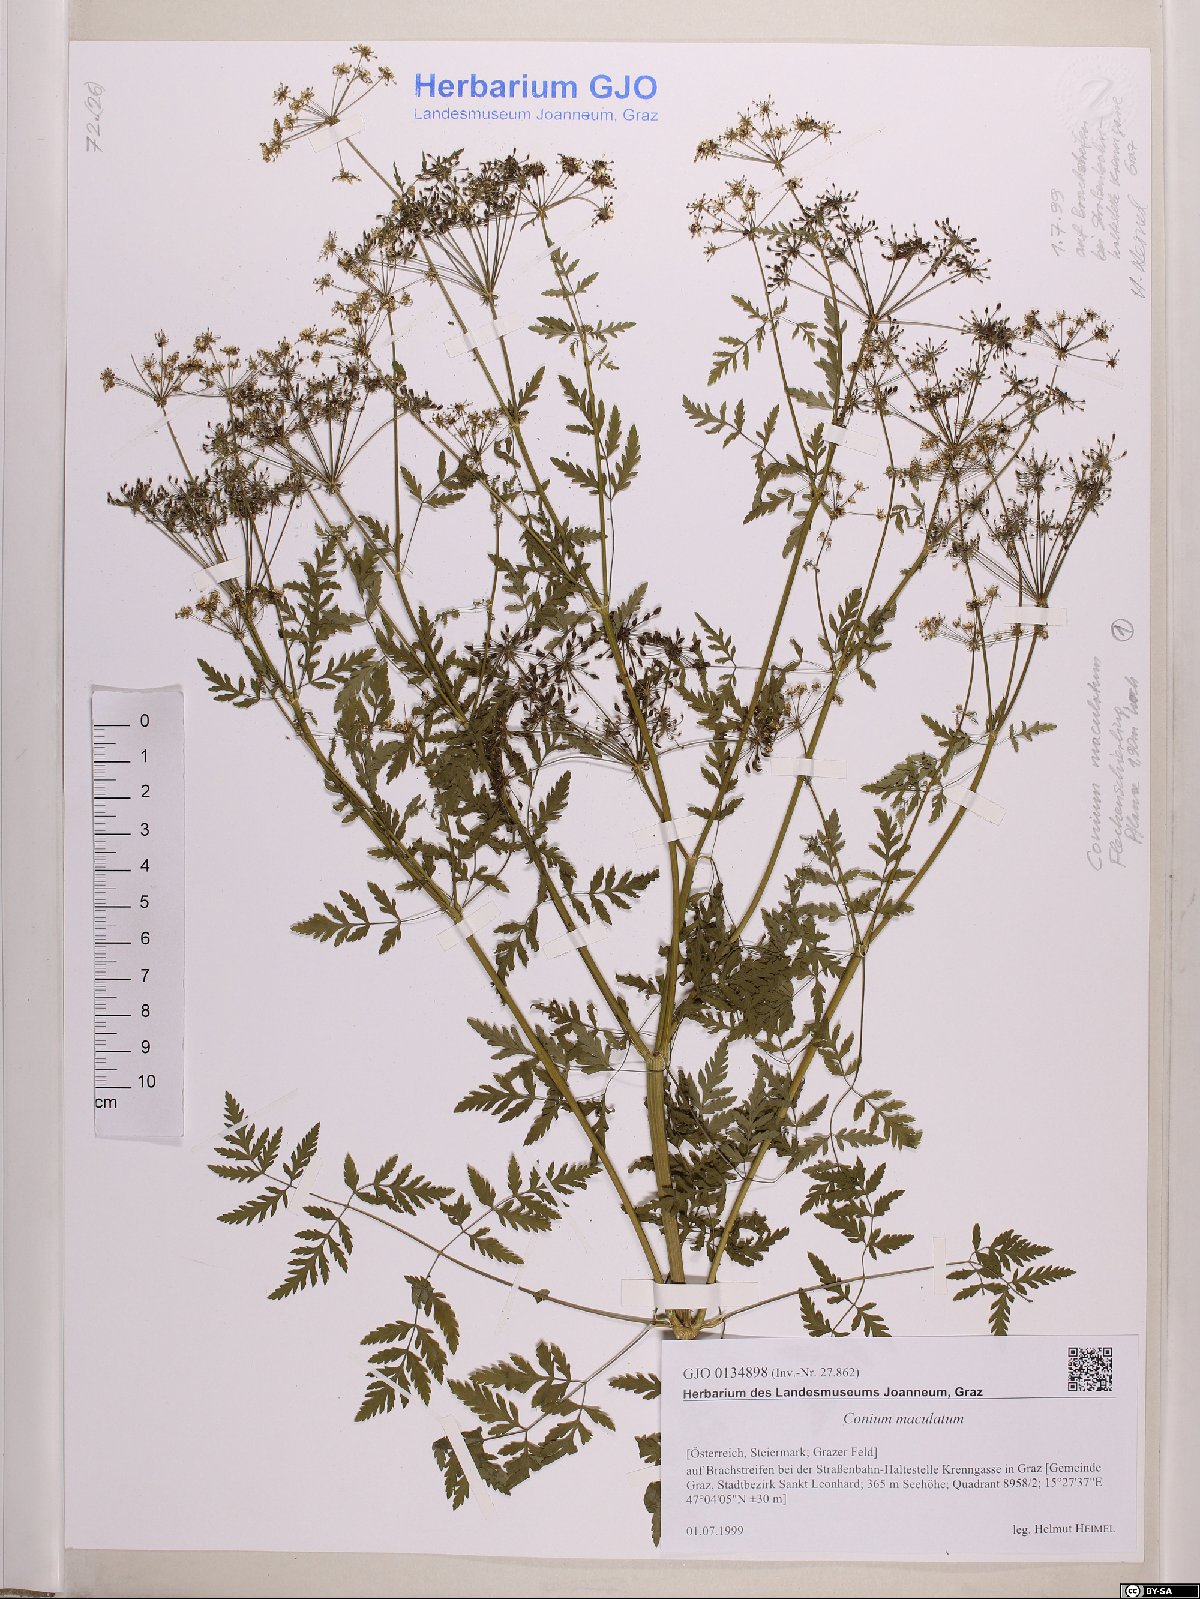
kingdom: Plantae
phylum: Tracheophyta
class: Magnoliopsida
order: Apiales
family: Apiaceae
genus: Conium
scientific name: Conium maculatum
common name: Hemlock
